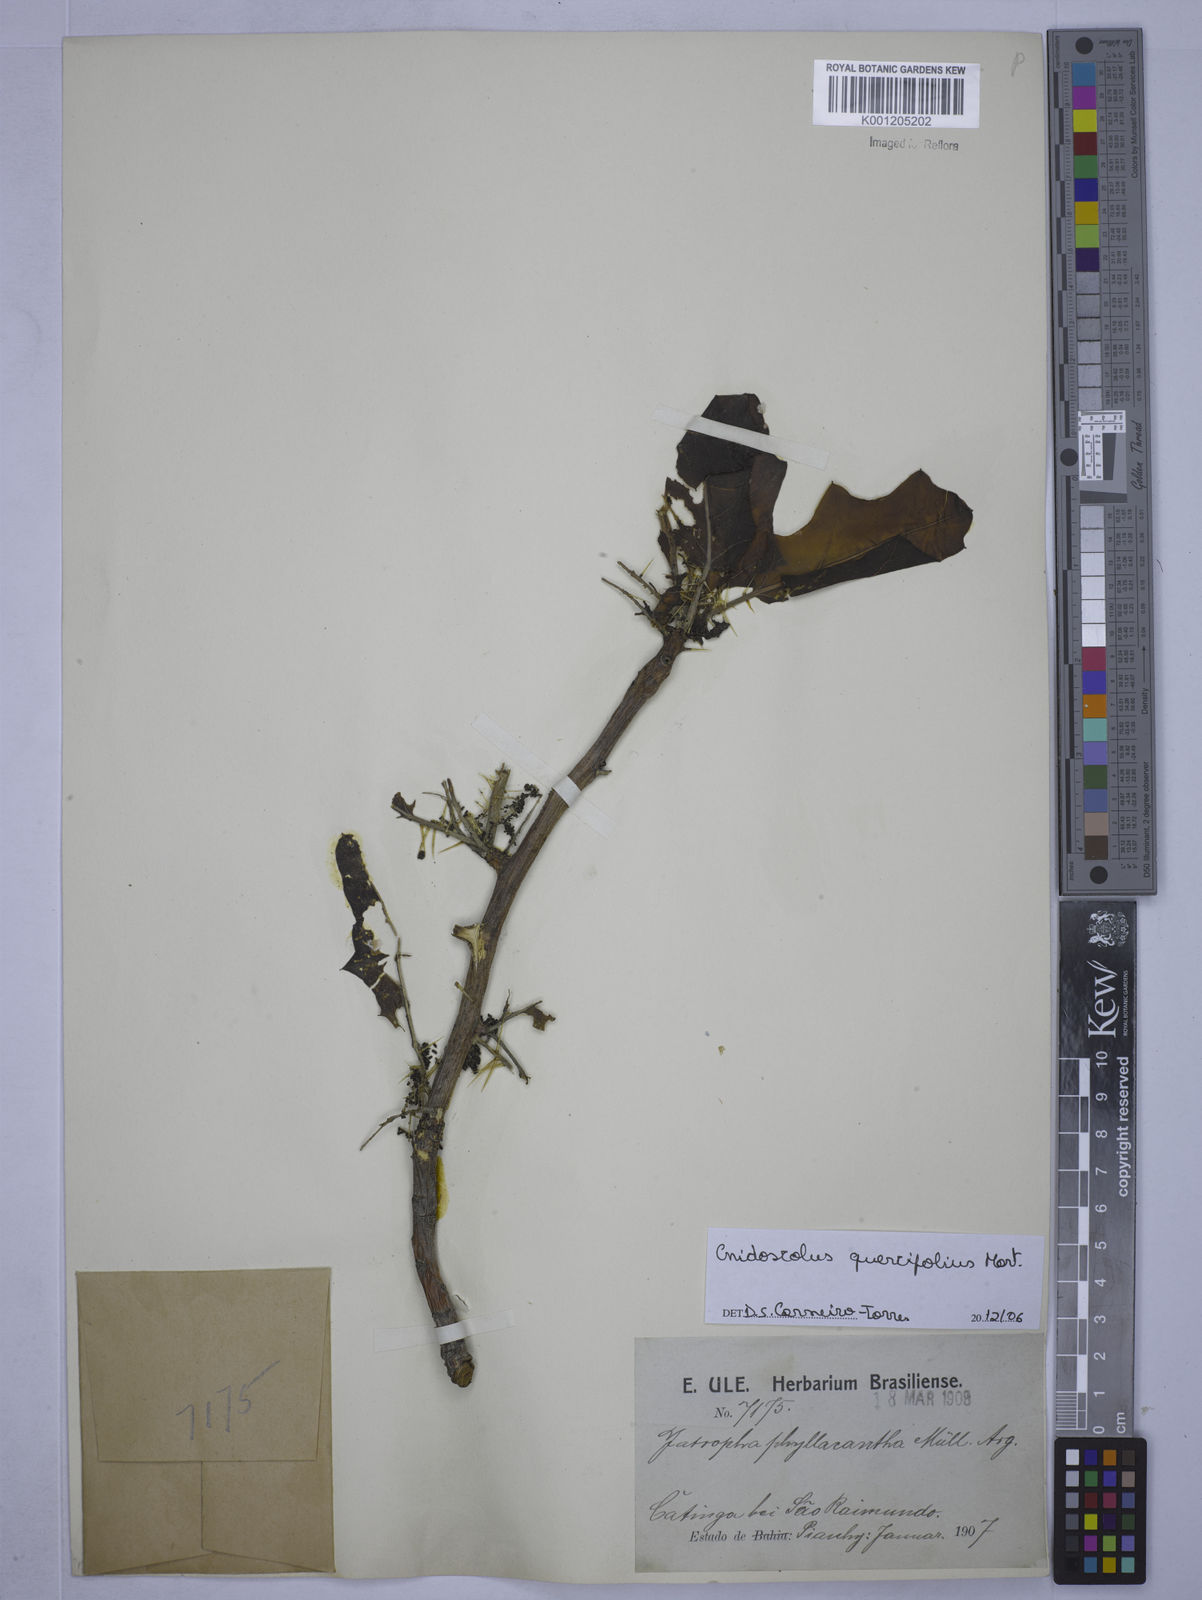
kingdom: Plantae
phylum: Tracheophyta
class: Magnoliopsida
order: Malpighiales
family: Euphorbiaceae
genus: Cnidoscolus
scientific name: Cnidoscolus quercifolius
